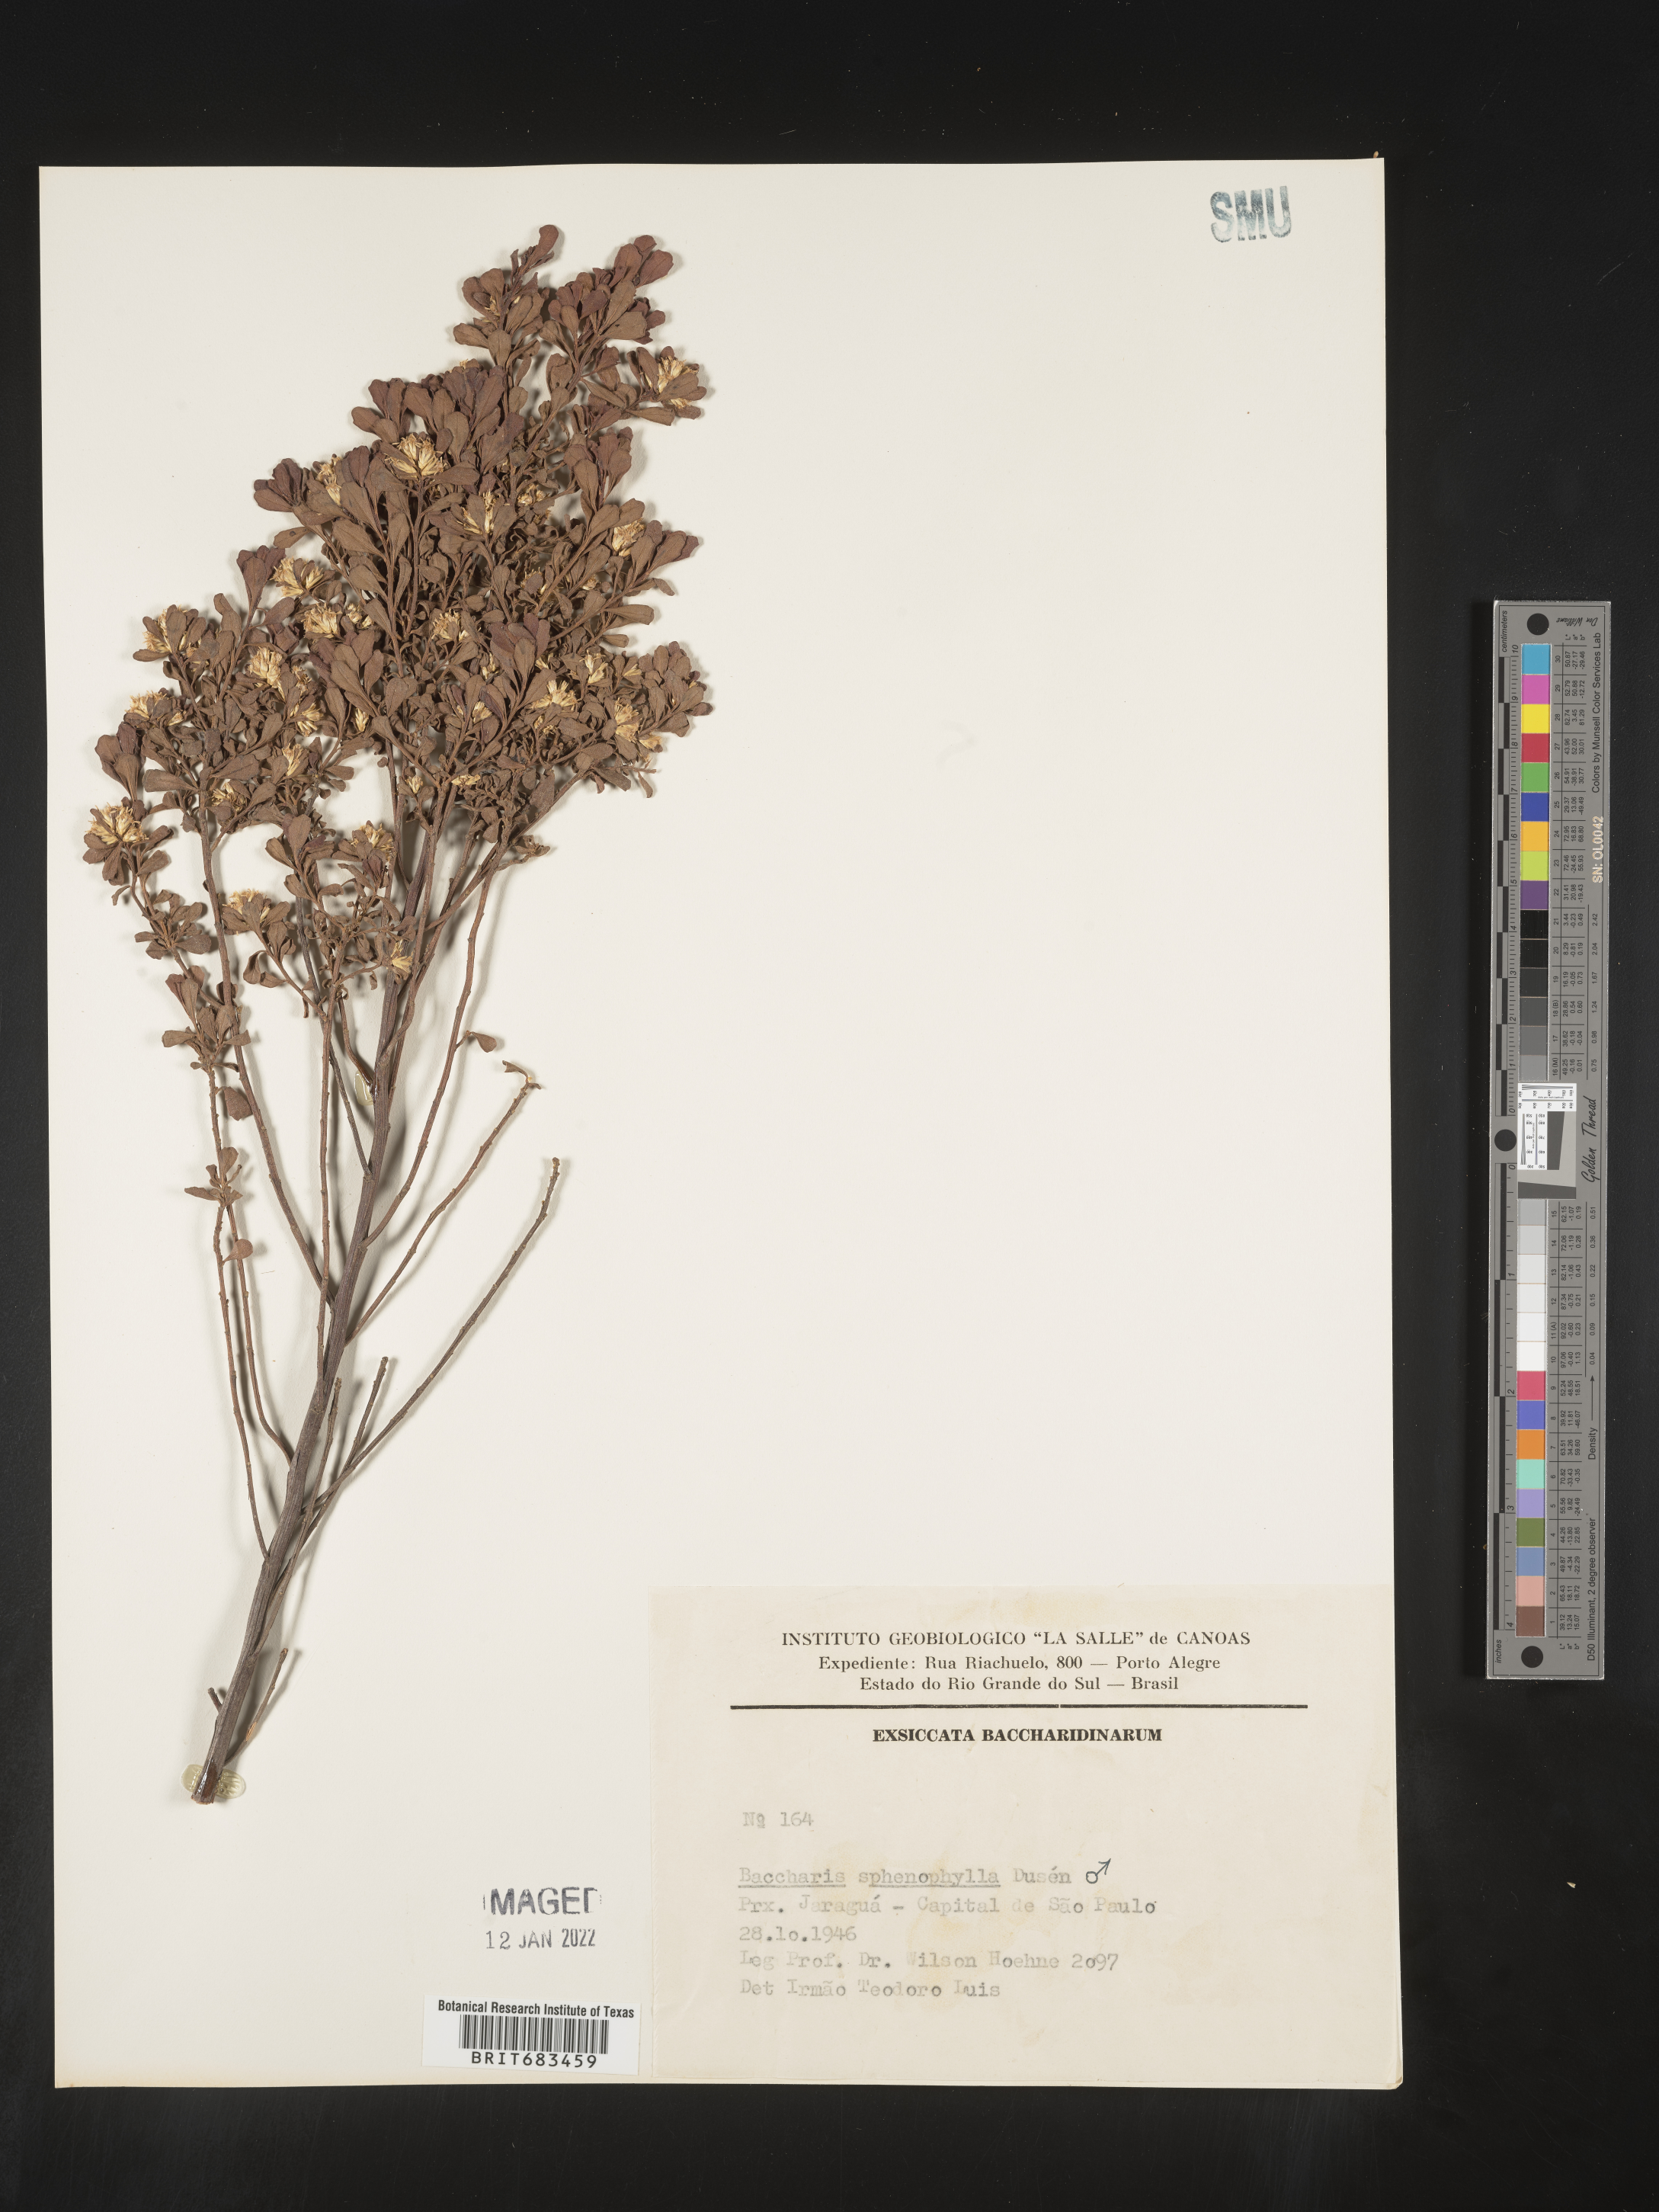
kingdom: Plantae
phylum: Tracheophyta
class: Magnoliopsida
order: Asterales
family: Asteraceae
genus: Baccharis
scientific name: Baccharis
